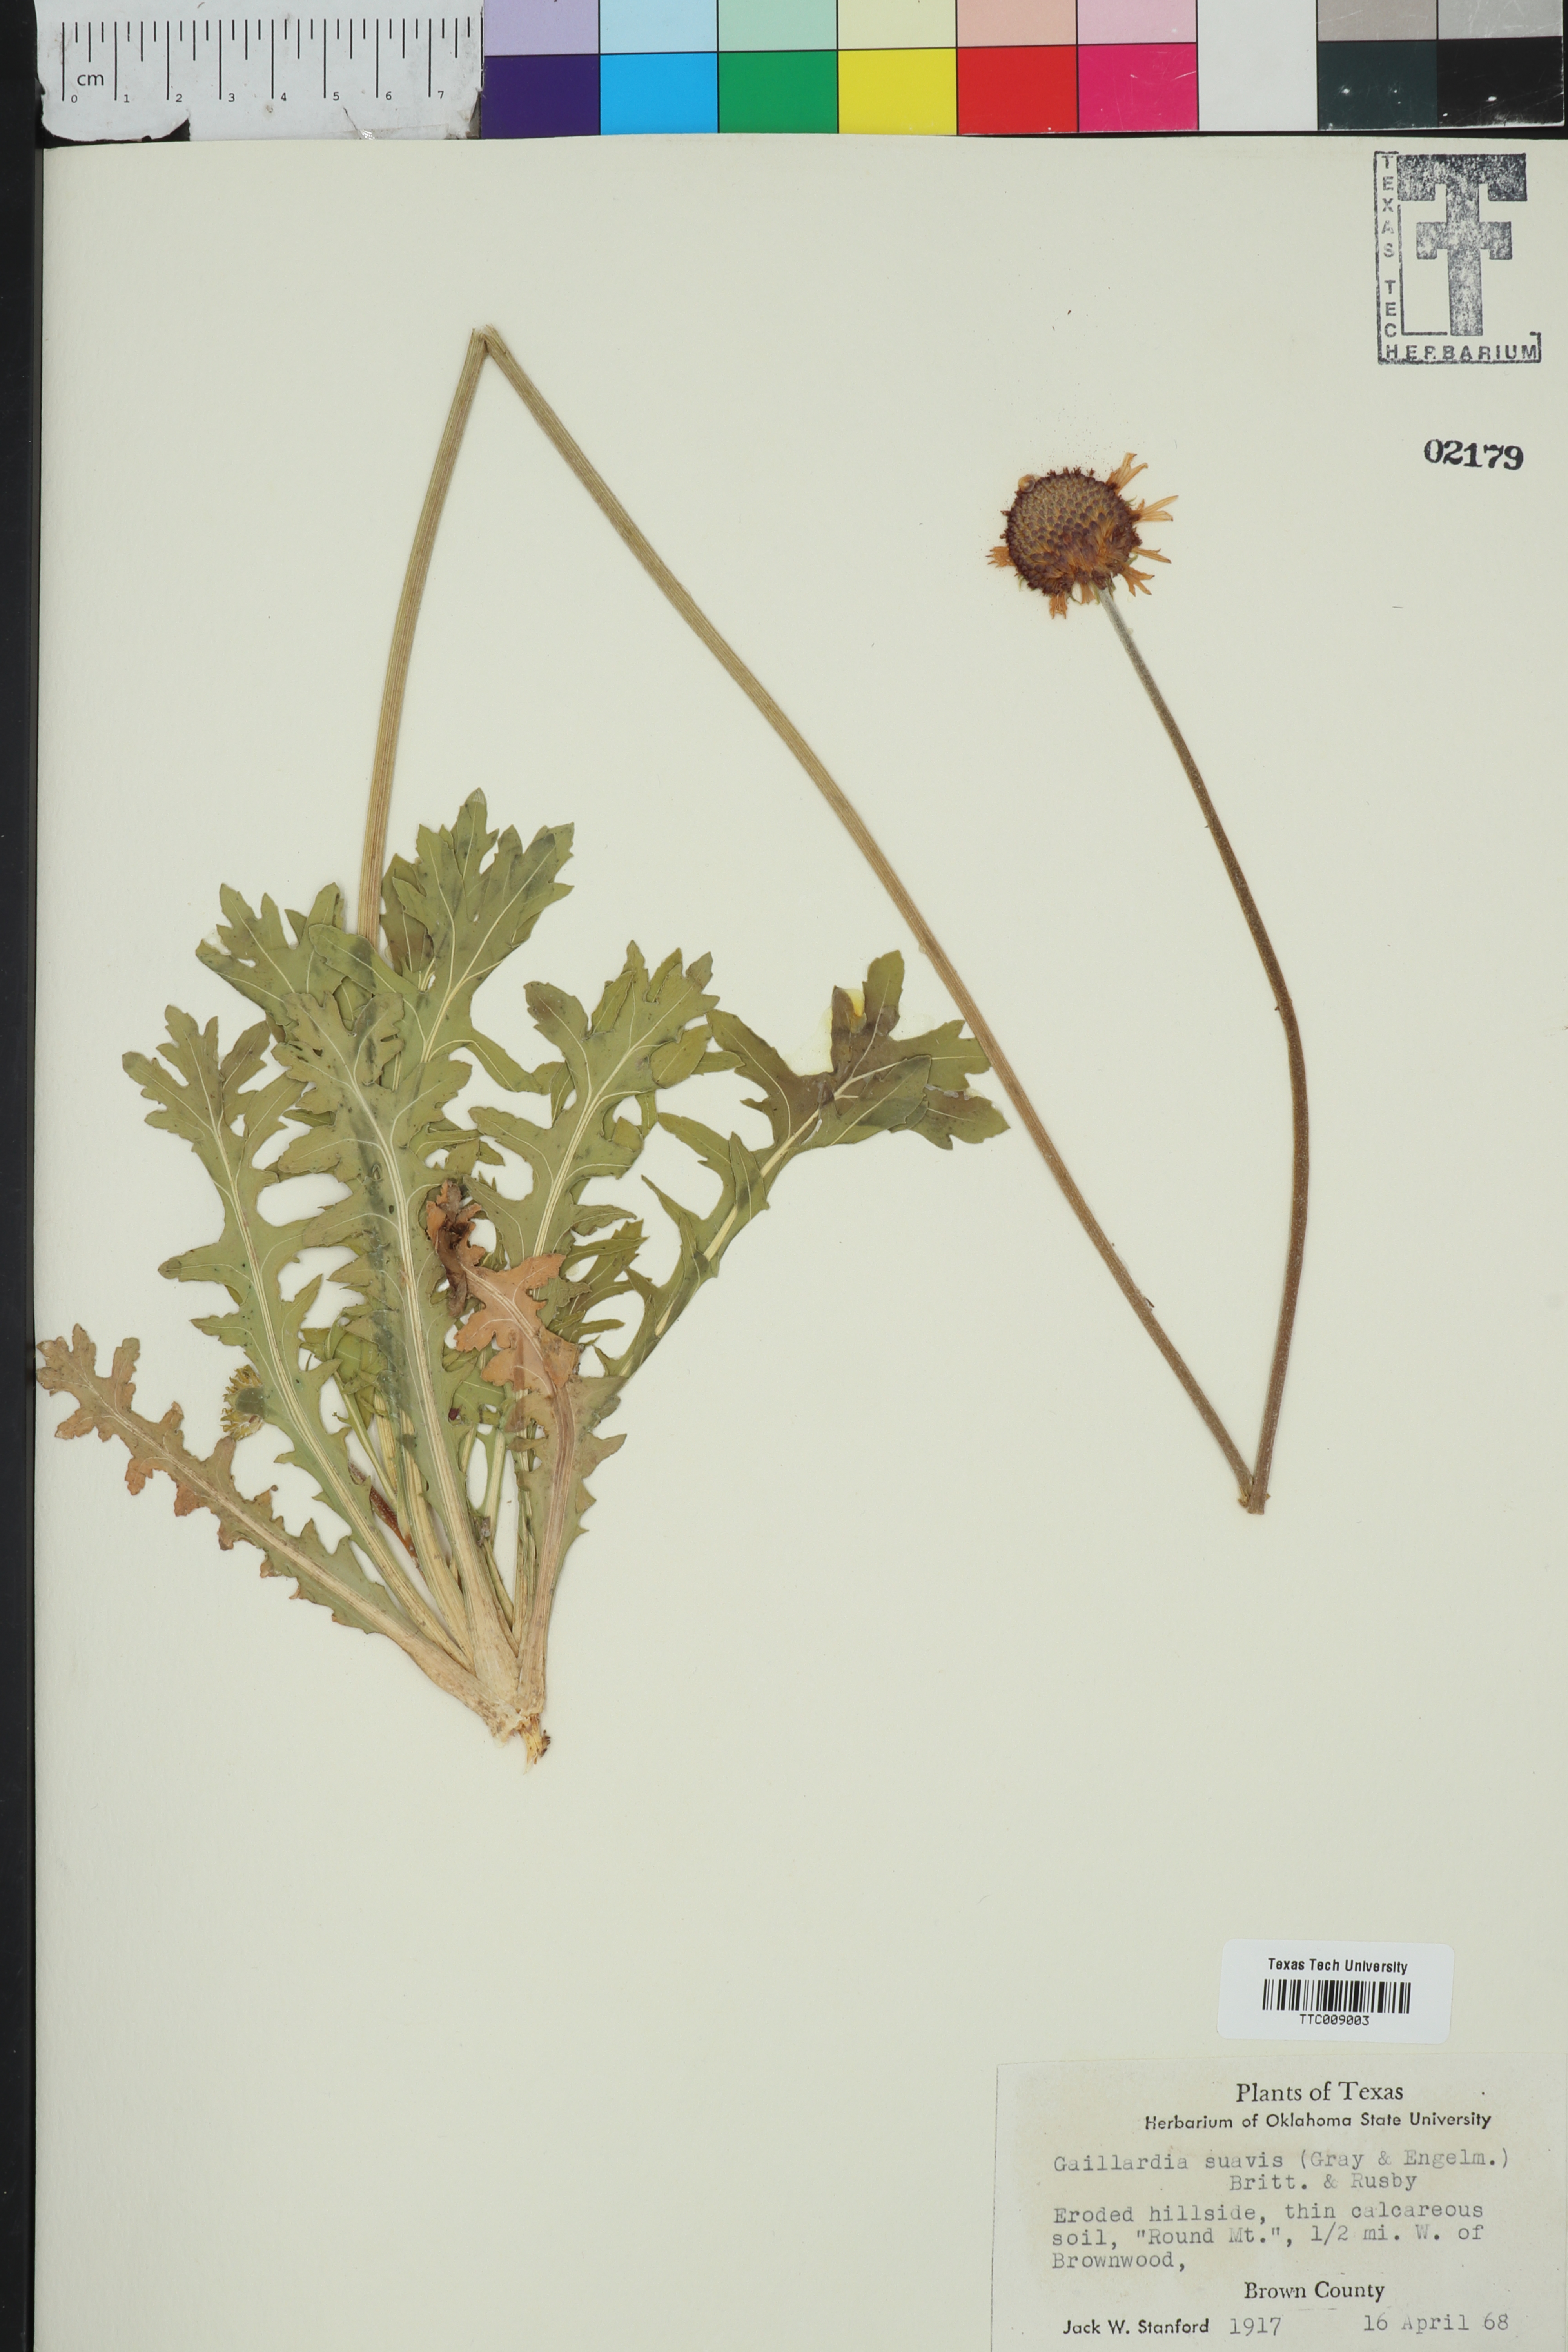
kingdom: Plantae
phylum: Tracheophyta
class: Magnoliopsida
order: Asterales
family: Asteraceae
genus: Gaillardia
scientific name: Gaillardia suavis
